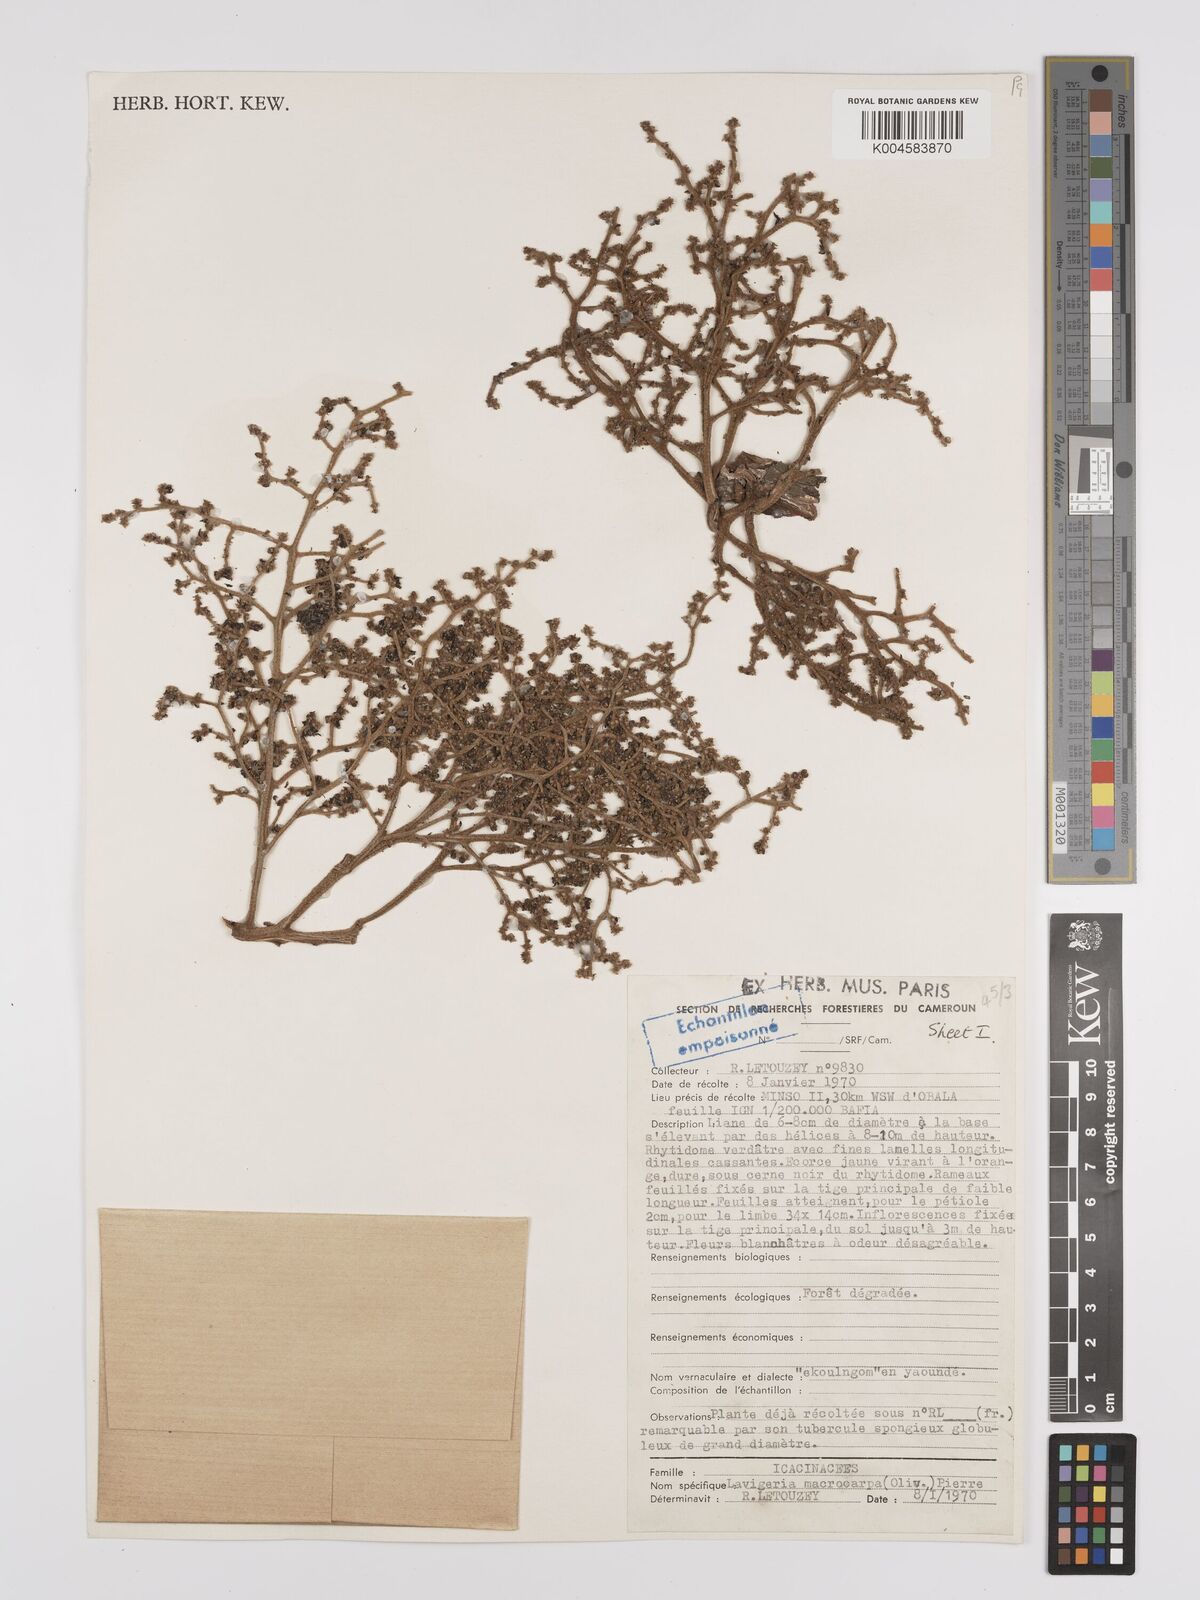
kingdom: Plantae
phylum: Tracheophyta
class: Magnoliopsida
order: Icacinales
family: Icacinaceae
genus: Lavigeria
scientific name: Lavigeria macrocarpa
